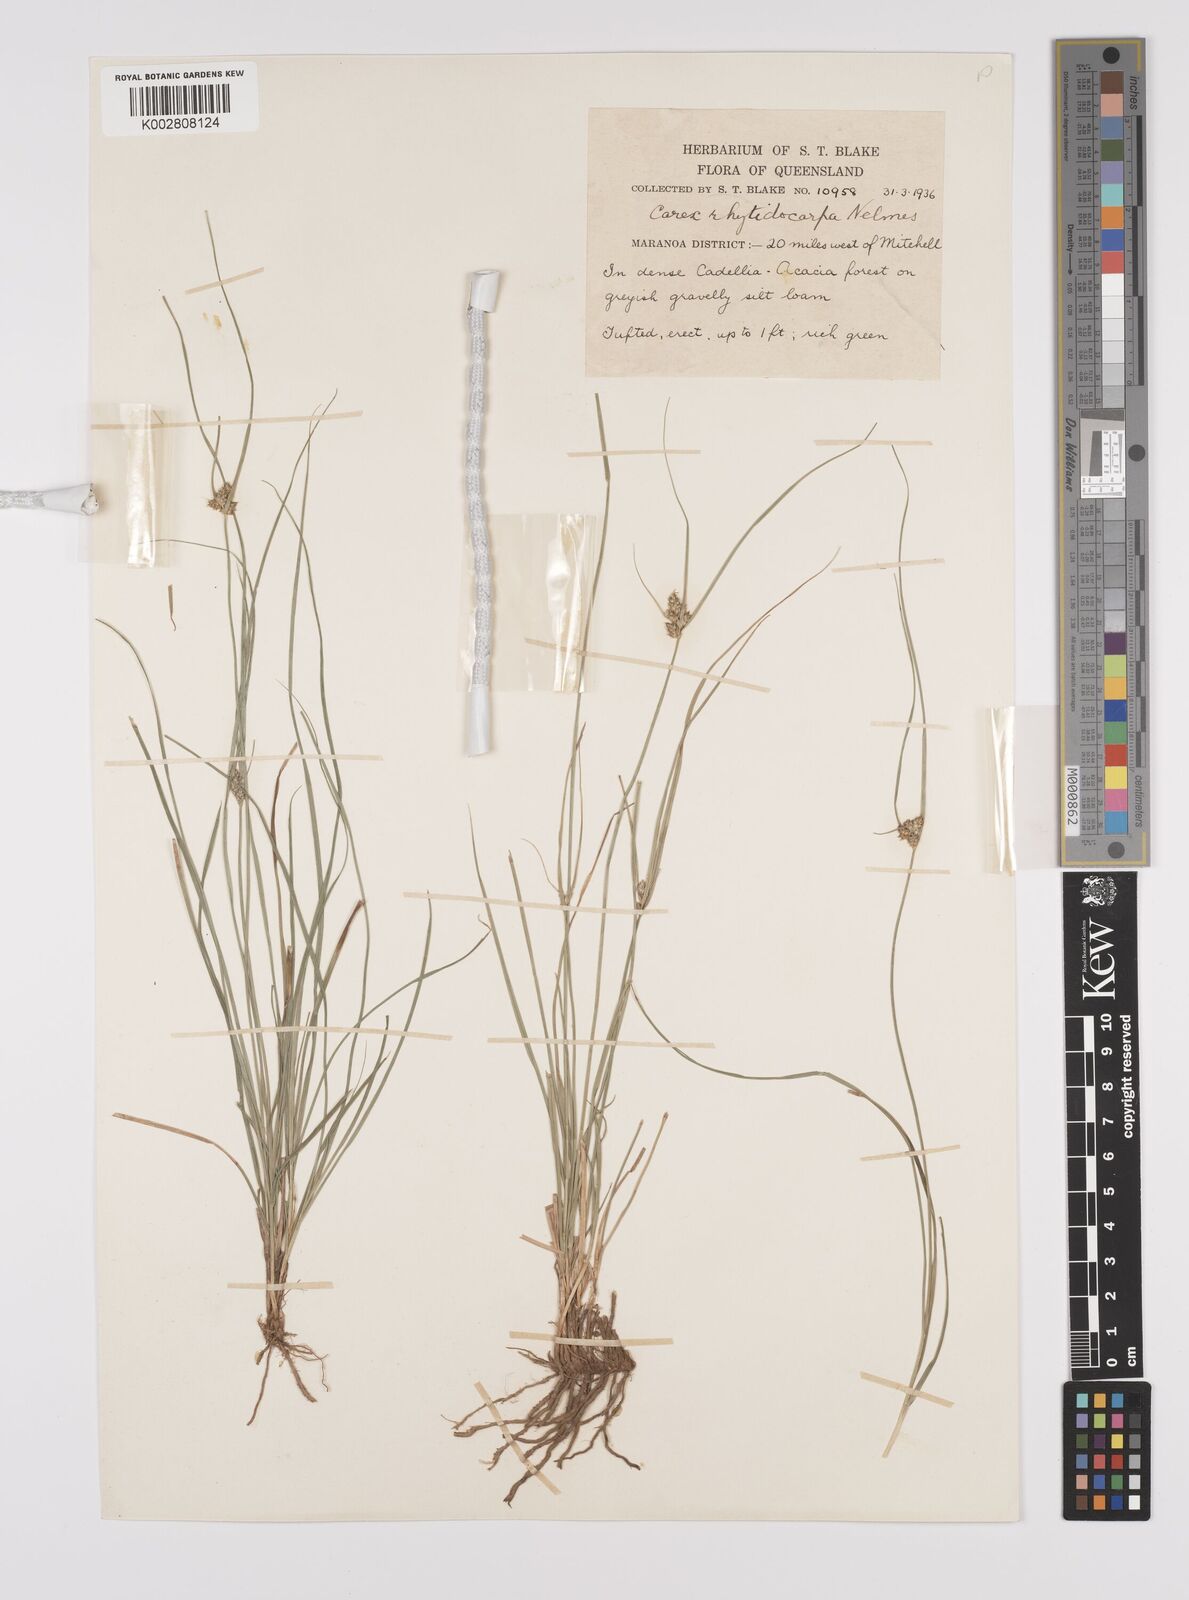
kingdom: Plantae
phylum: Tracheophyta
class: Liliopsida
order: Poales
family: Cyperaceae
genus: Carex
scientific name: Carex inversa
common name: Knob sedge
